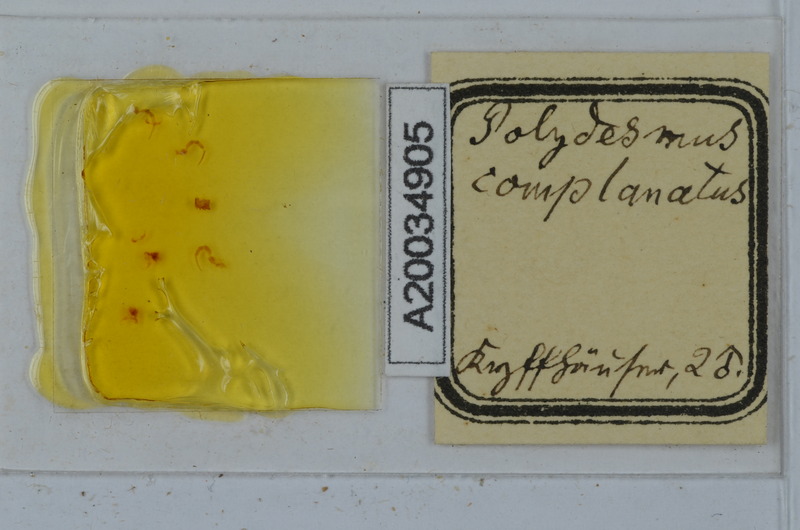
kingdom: Animalia
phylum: Arthropoda
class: Diplopoda
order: Polydesmida
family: Polydesmidae
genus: Polydesmus
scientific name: Polydesmus complanatus
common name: Flat-backed millipede
